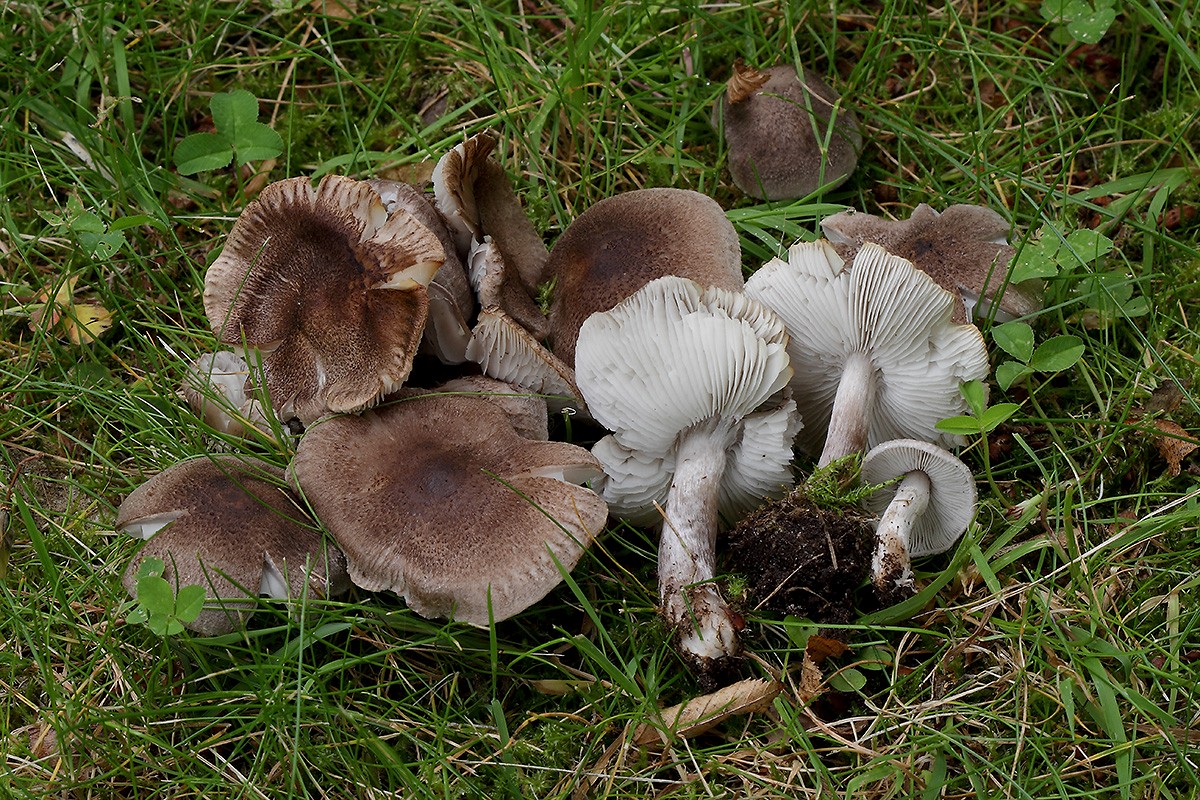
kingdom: Fungi
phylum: Basidiomycota
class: Agaricomycetes
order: Agaricales
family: Tricholomataceae
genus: Tricholoma
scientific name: Tricholoma scalpturatum
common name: gulplettet ridderhat
